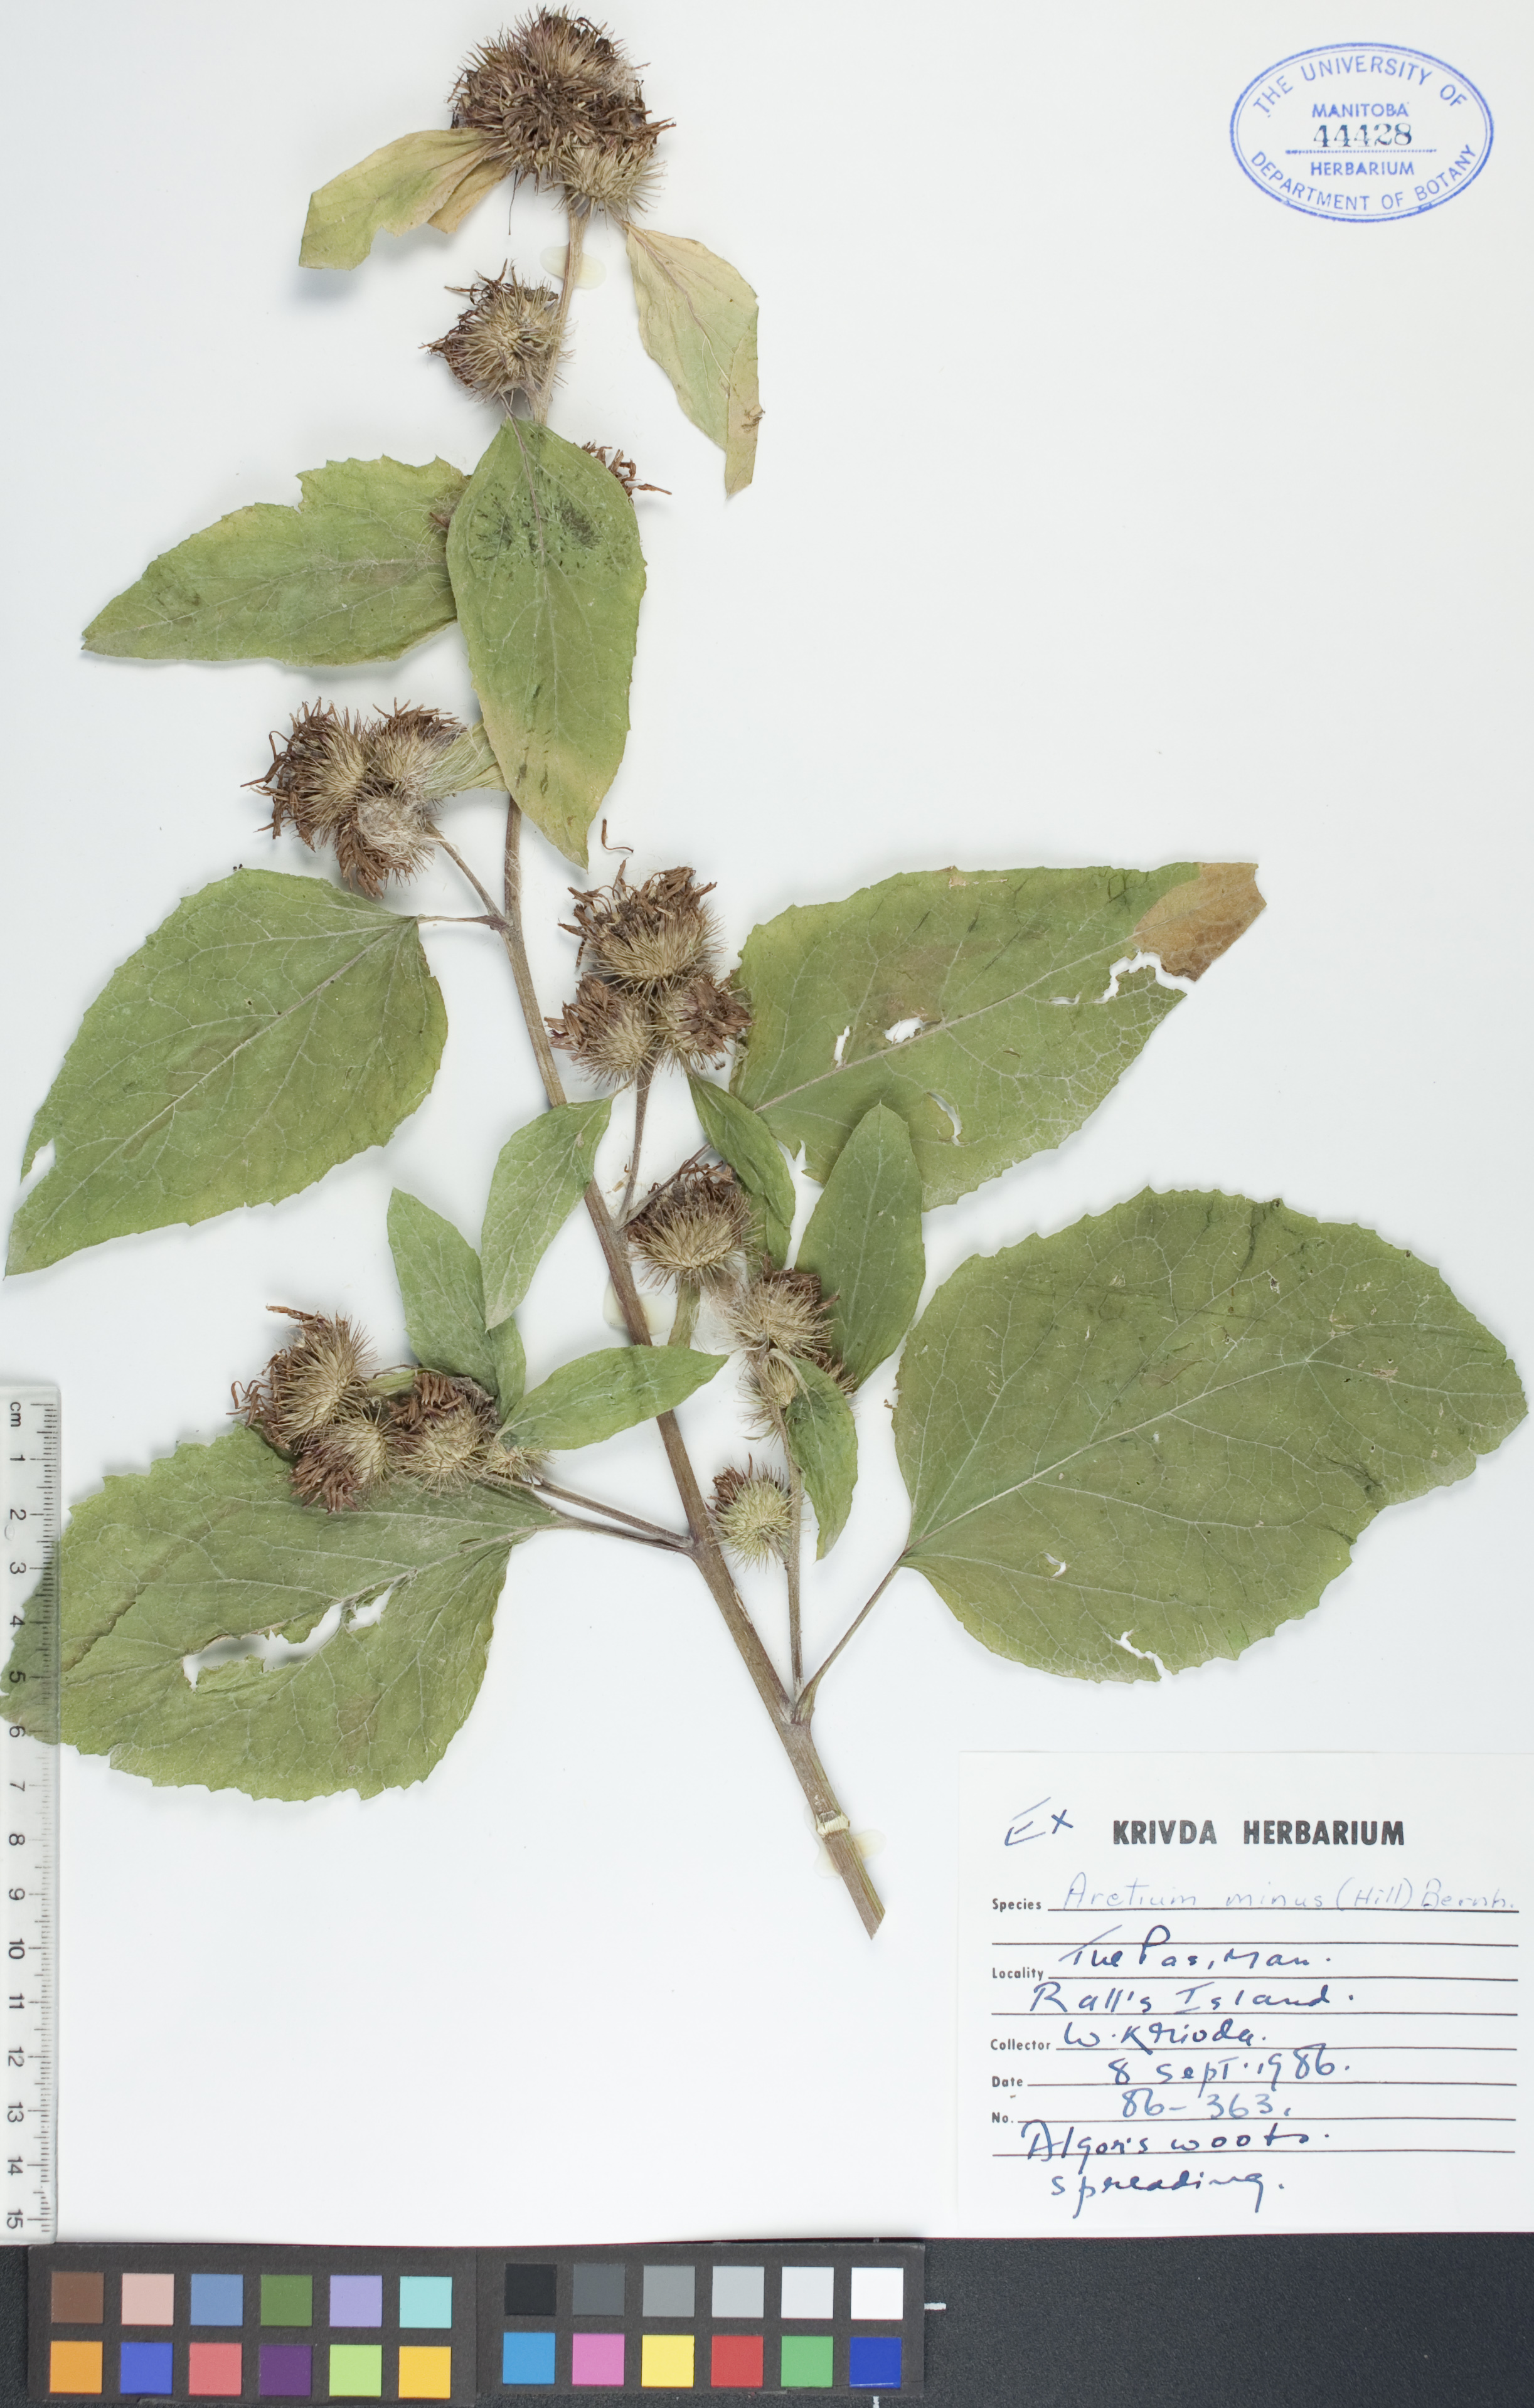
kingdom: Plantae
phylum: Tracheophyta
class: Magnoliopsida
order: Asterales
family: Asteraceae
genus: Arctium
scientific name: Arctium minus
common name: Lesser burdock
